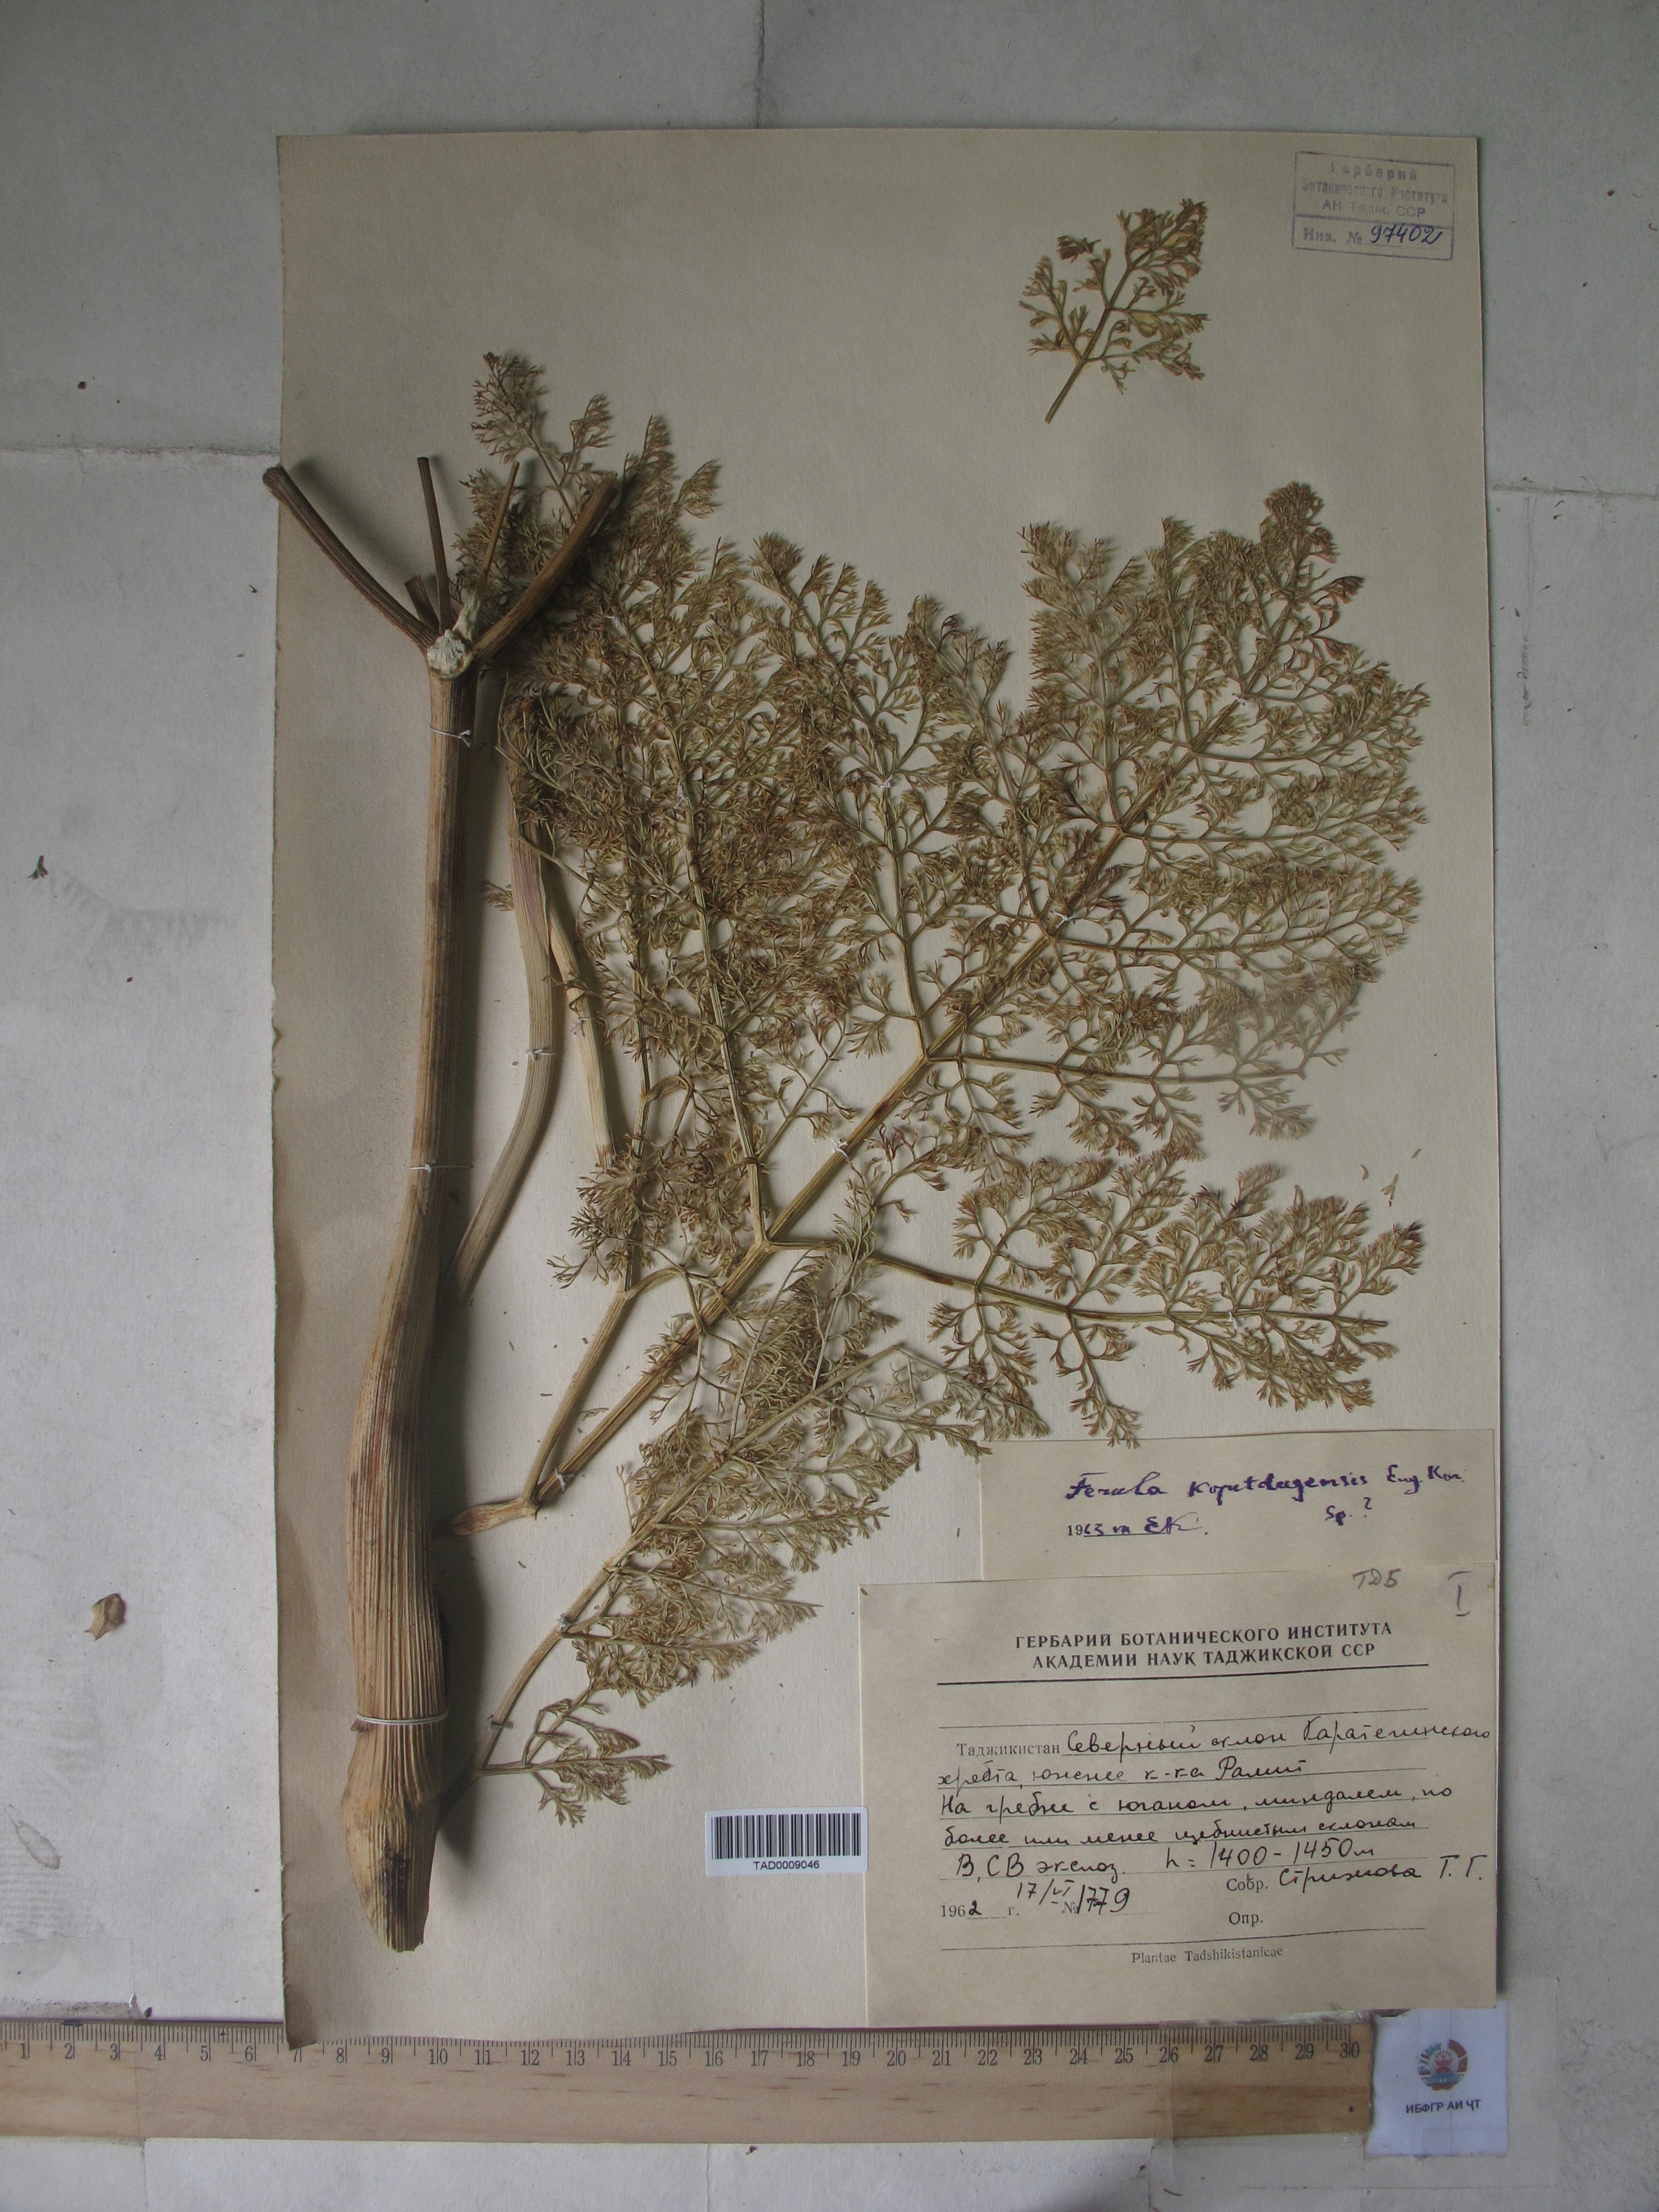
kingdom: Plantae
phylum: Tracheophyta
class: Magnoliopsida
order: Apiales
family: Apiaceae
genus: Ferula
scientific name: Ferula ovina
